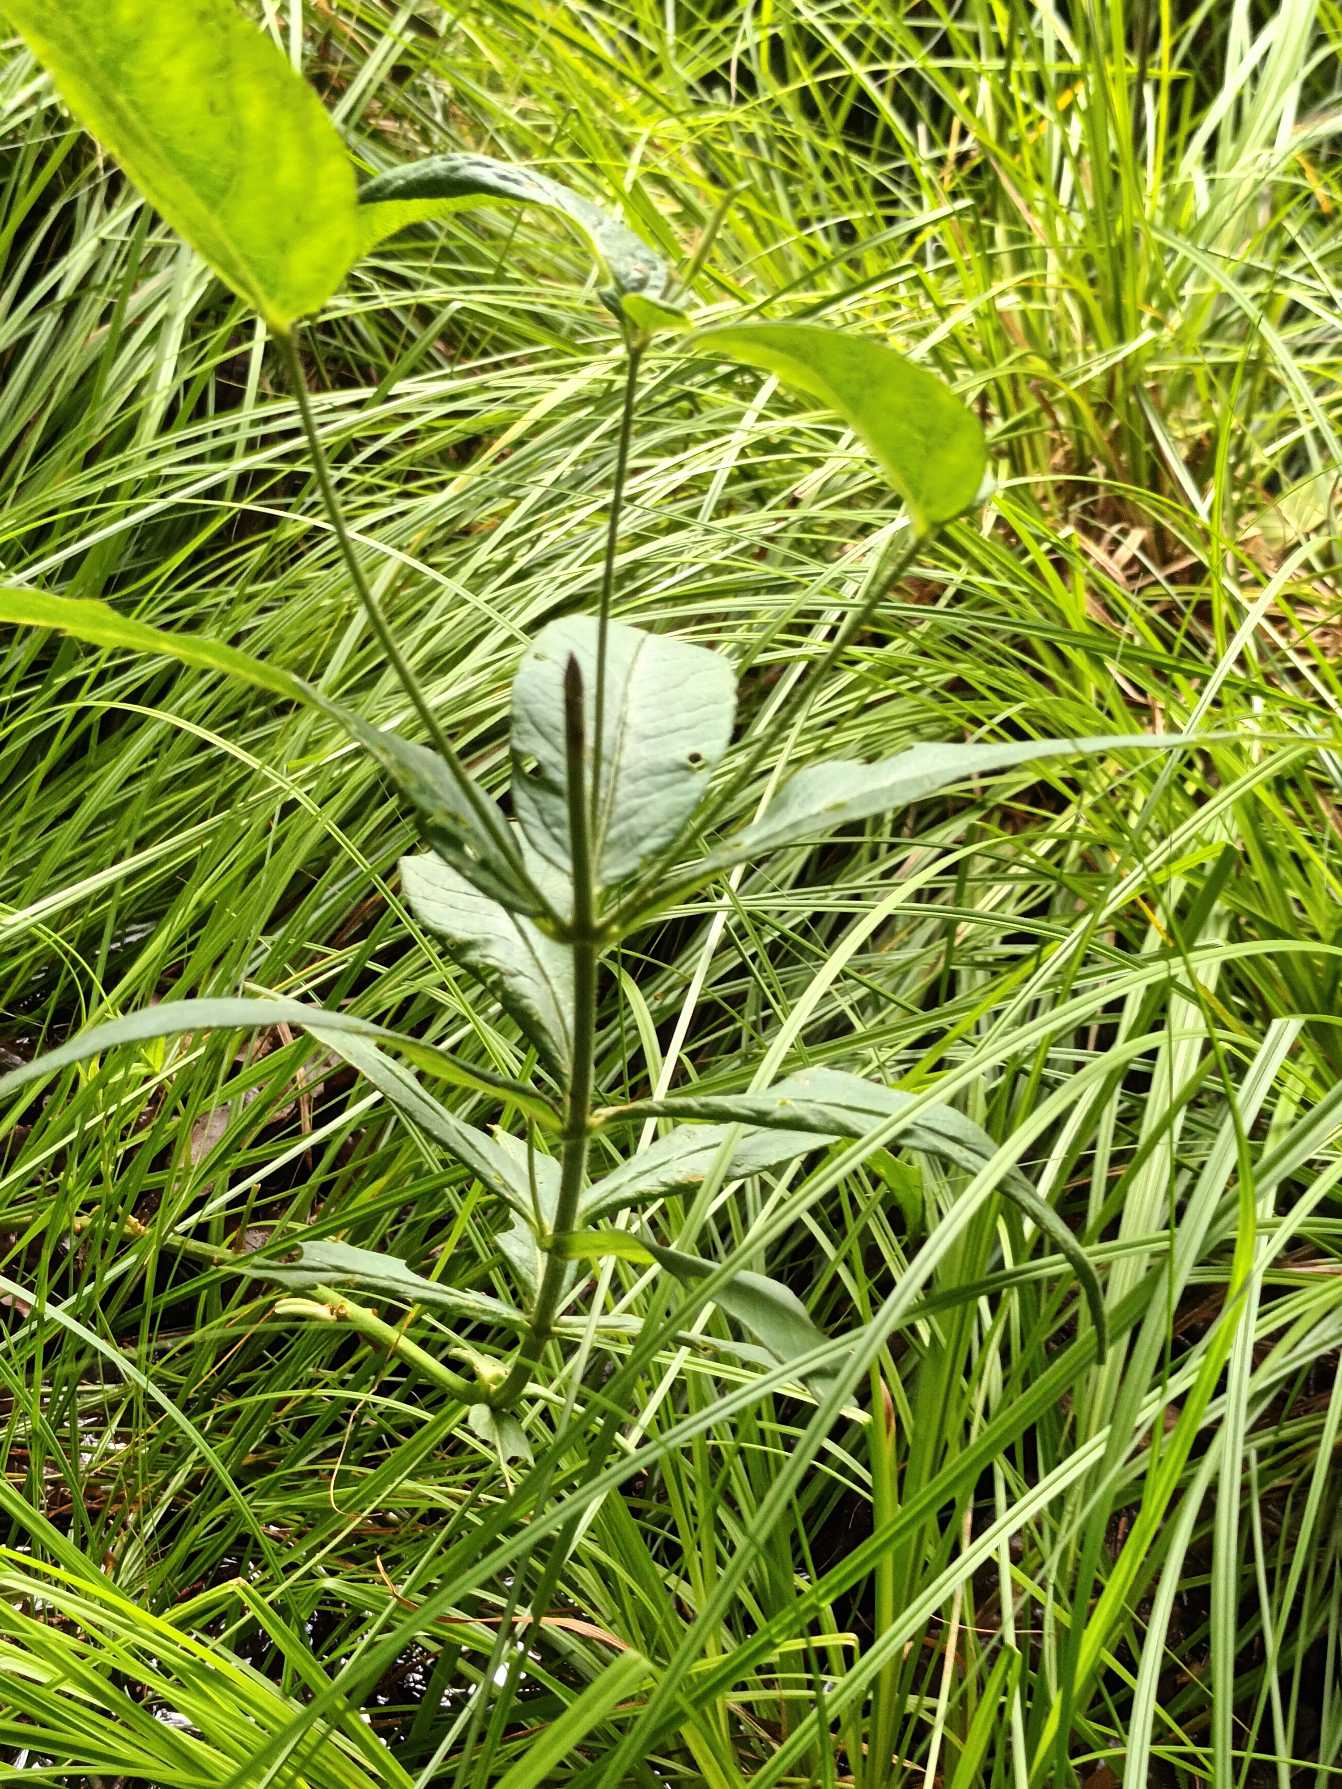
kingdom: Plantae
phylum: Tracheophyta
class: Magnoliopsida
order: Ericales
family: Primulaceae
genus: Lysimachia
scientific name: Lysimachia vulgaris
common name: Almindelig fredløs
